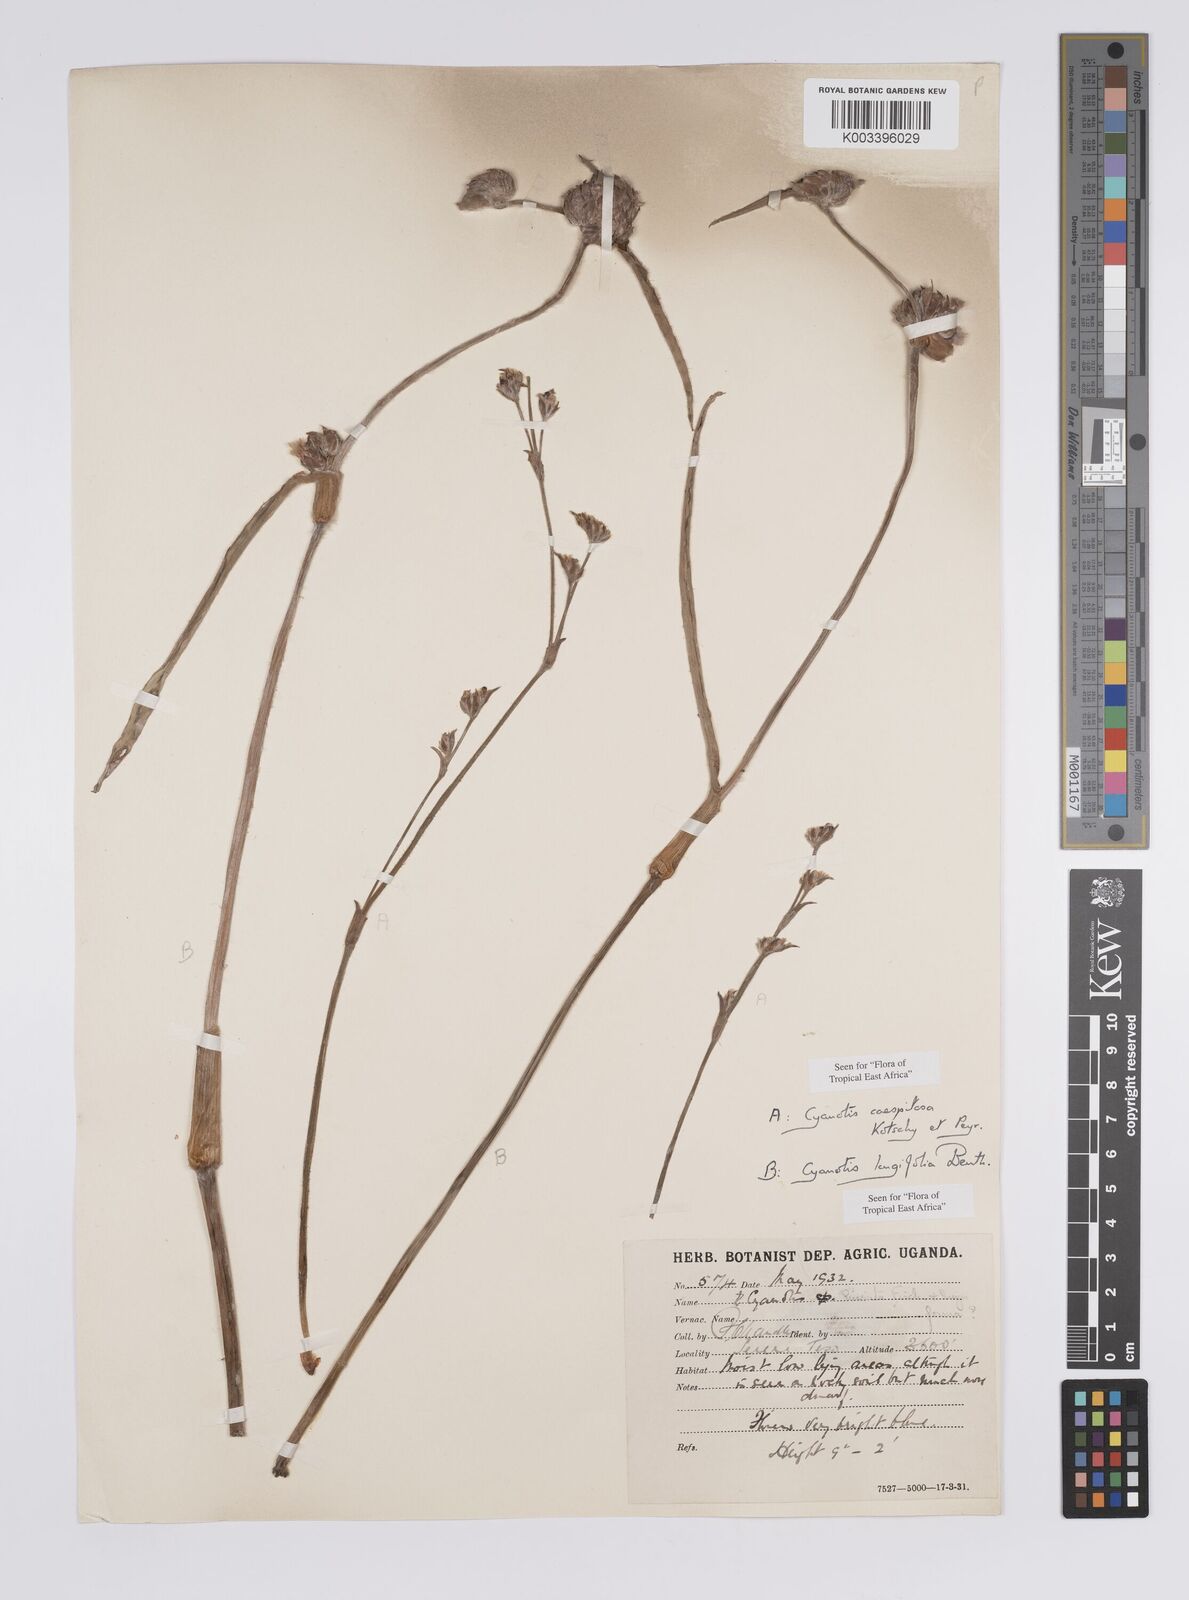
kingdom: Plantae
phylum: Tracheophyta
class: Liliopsida
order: Commelinales
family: Commelinaceae
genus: Cyanotis
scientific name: Cyanotis caespitosa
